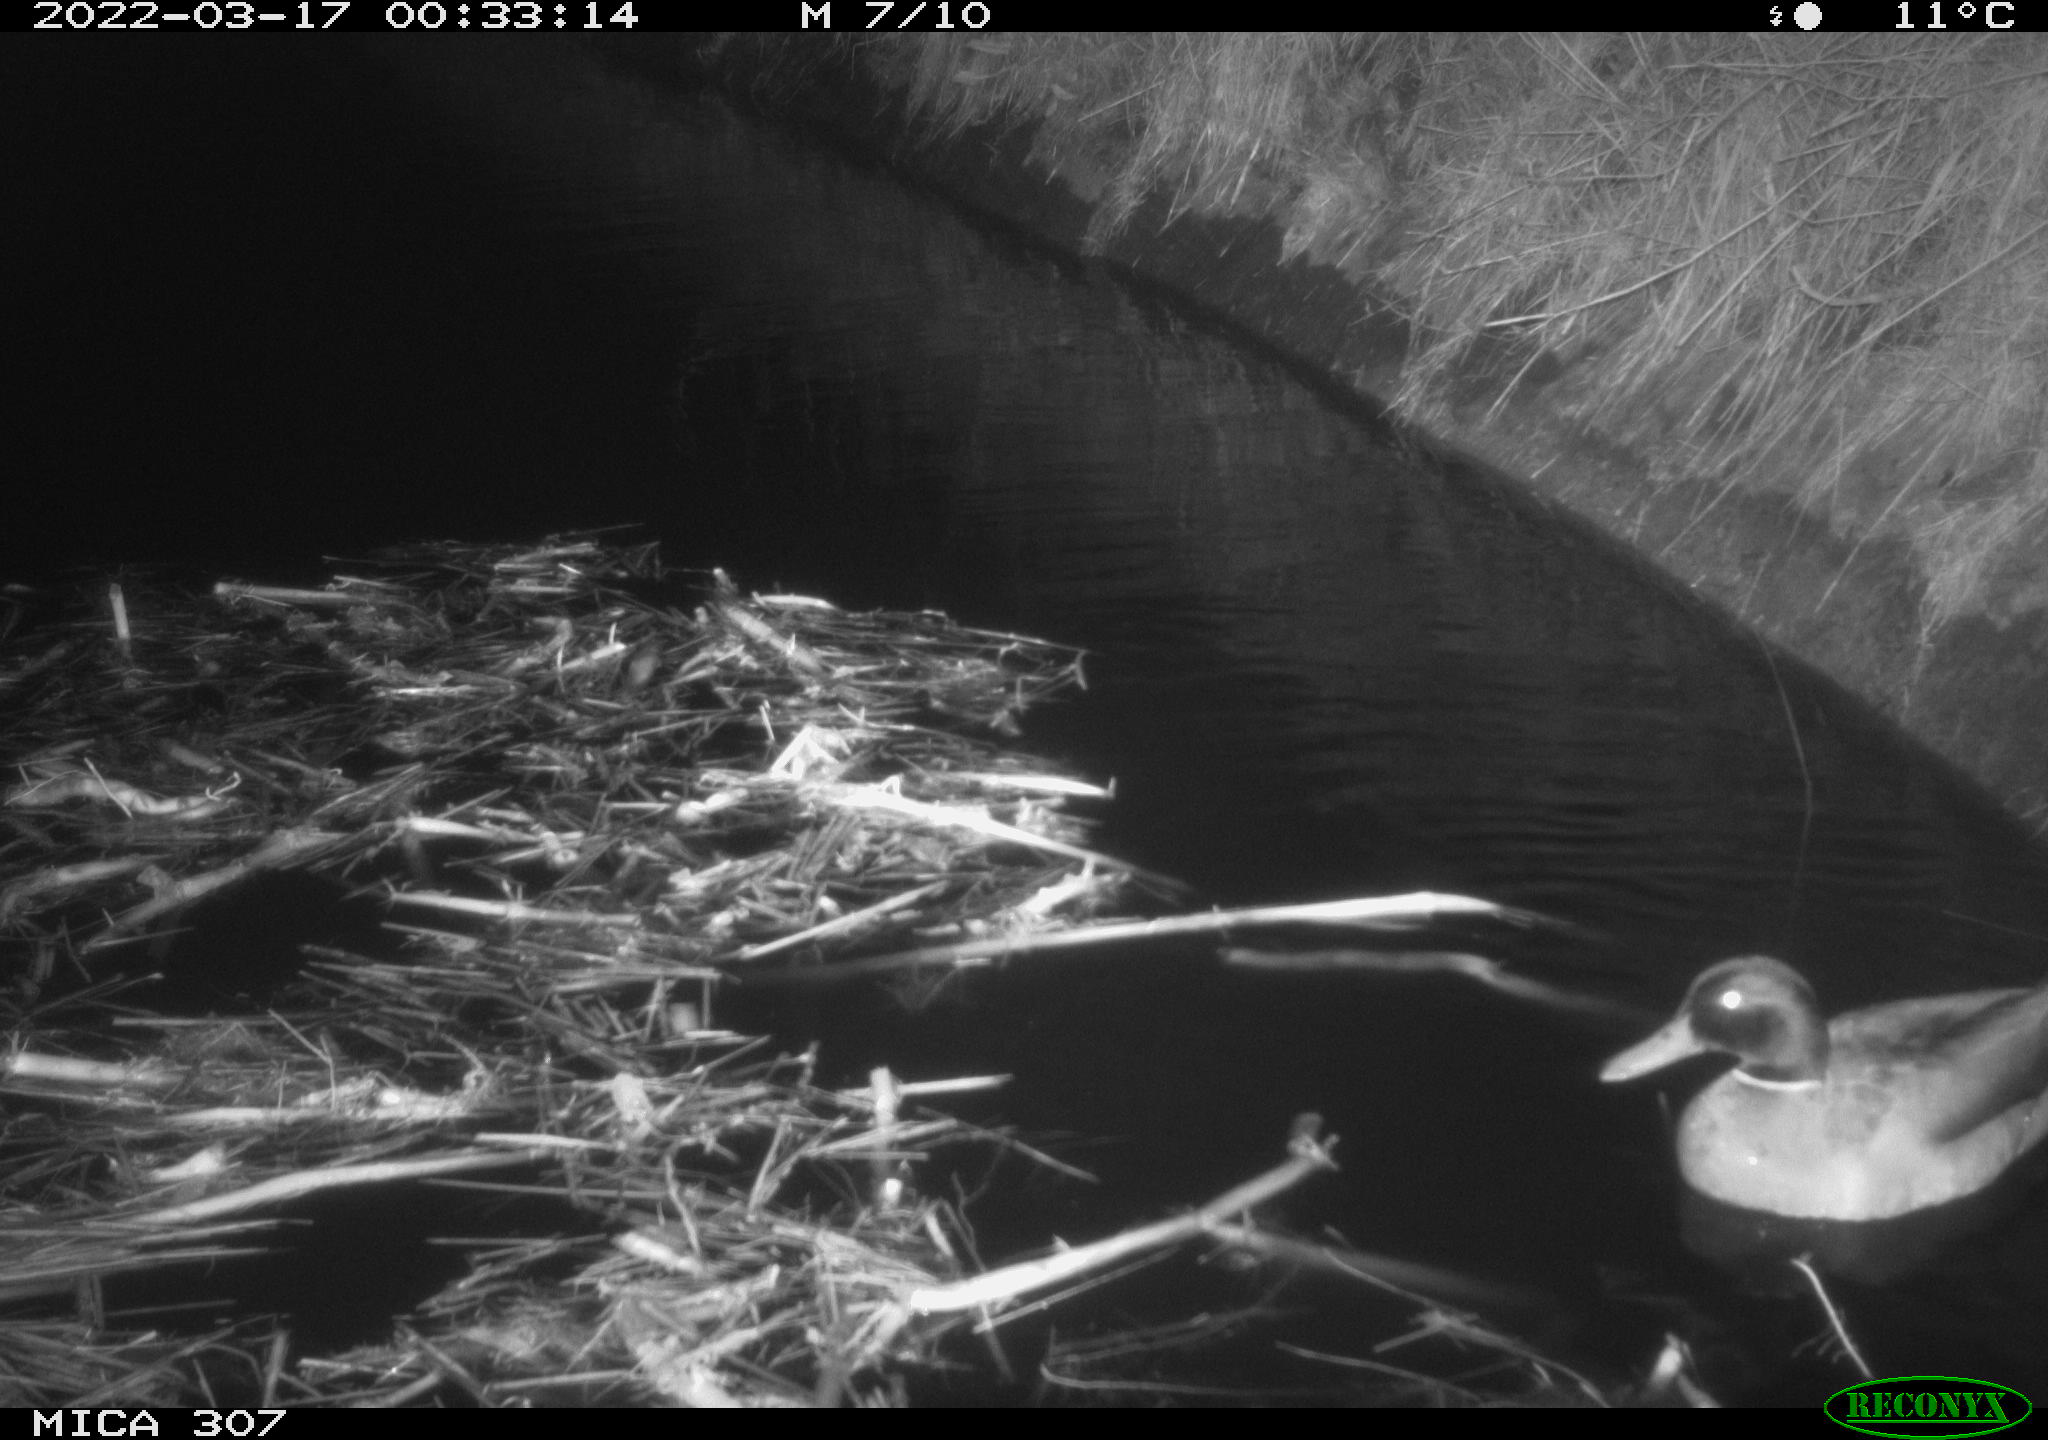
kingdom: Animalia
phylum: Chordata
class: Aves
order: Anseriformes
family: Anatidae
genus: Anas
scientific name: Anas platyrhynchos
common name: Mallard
